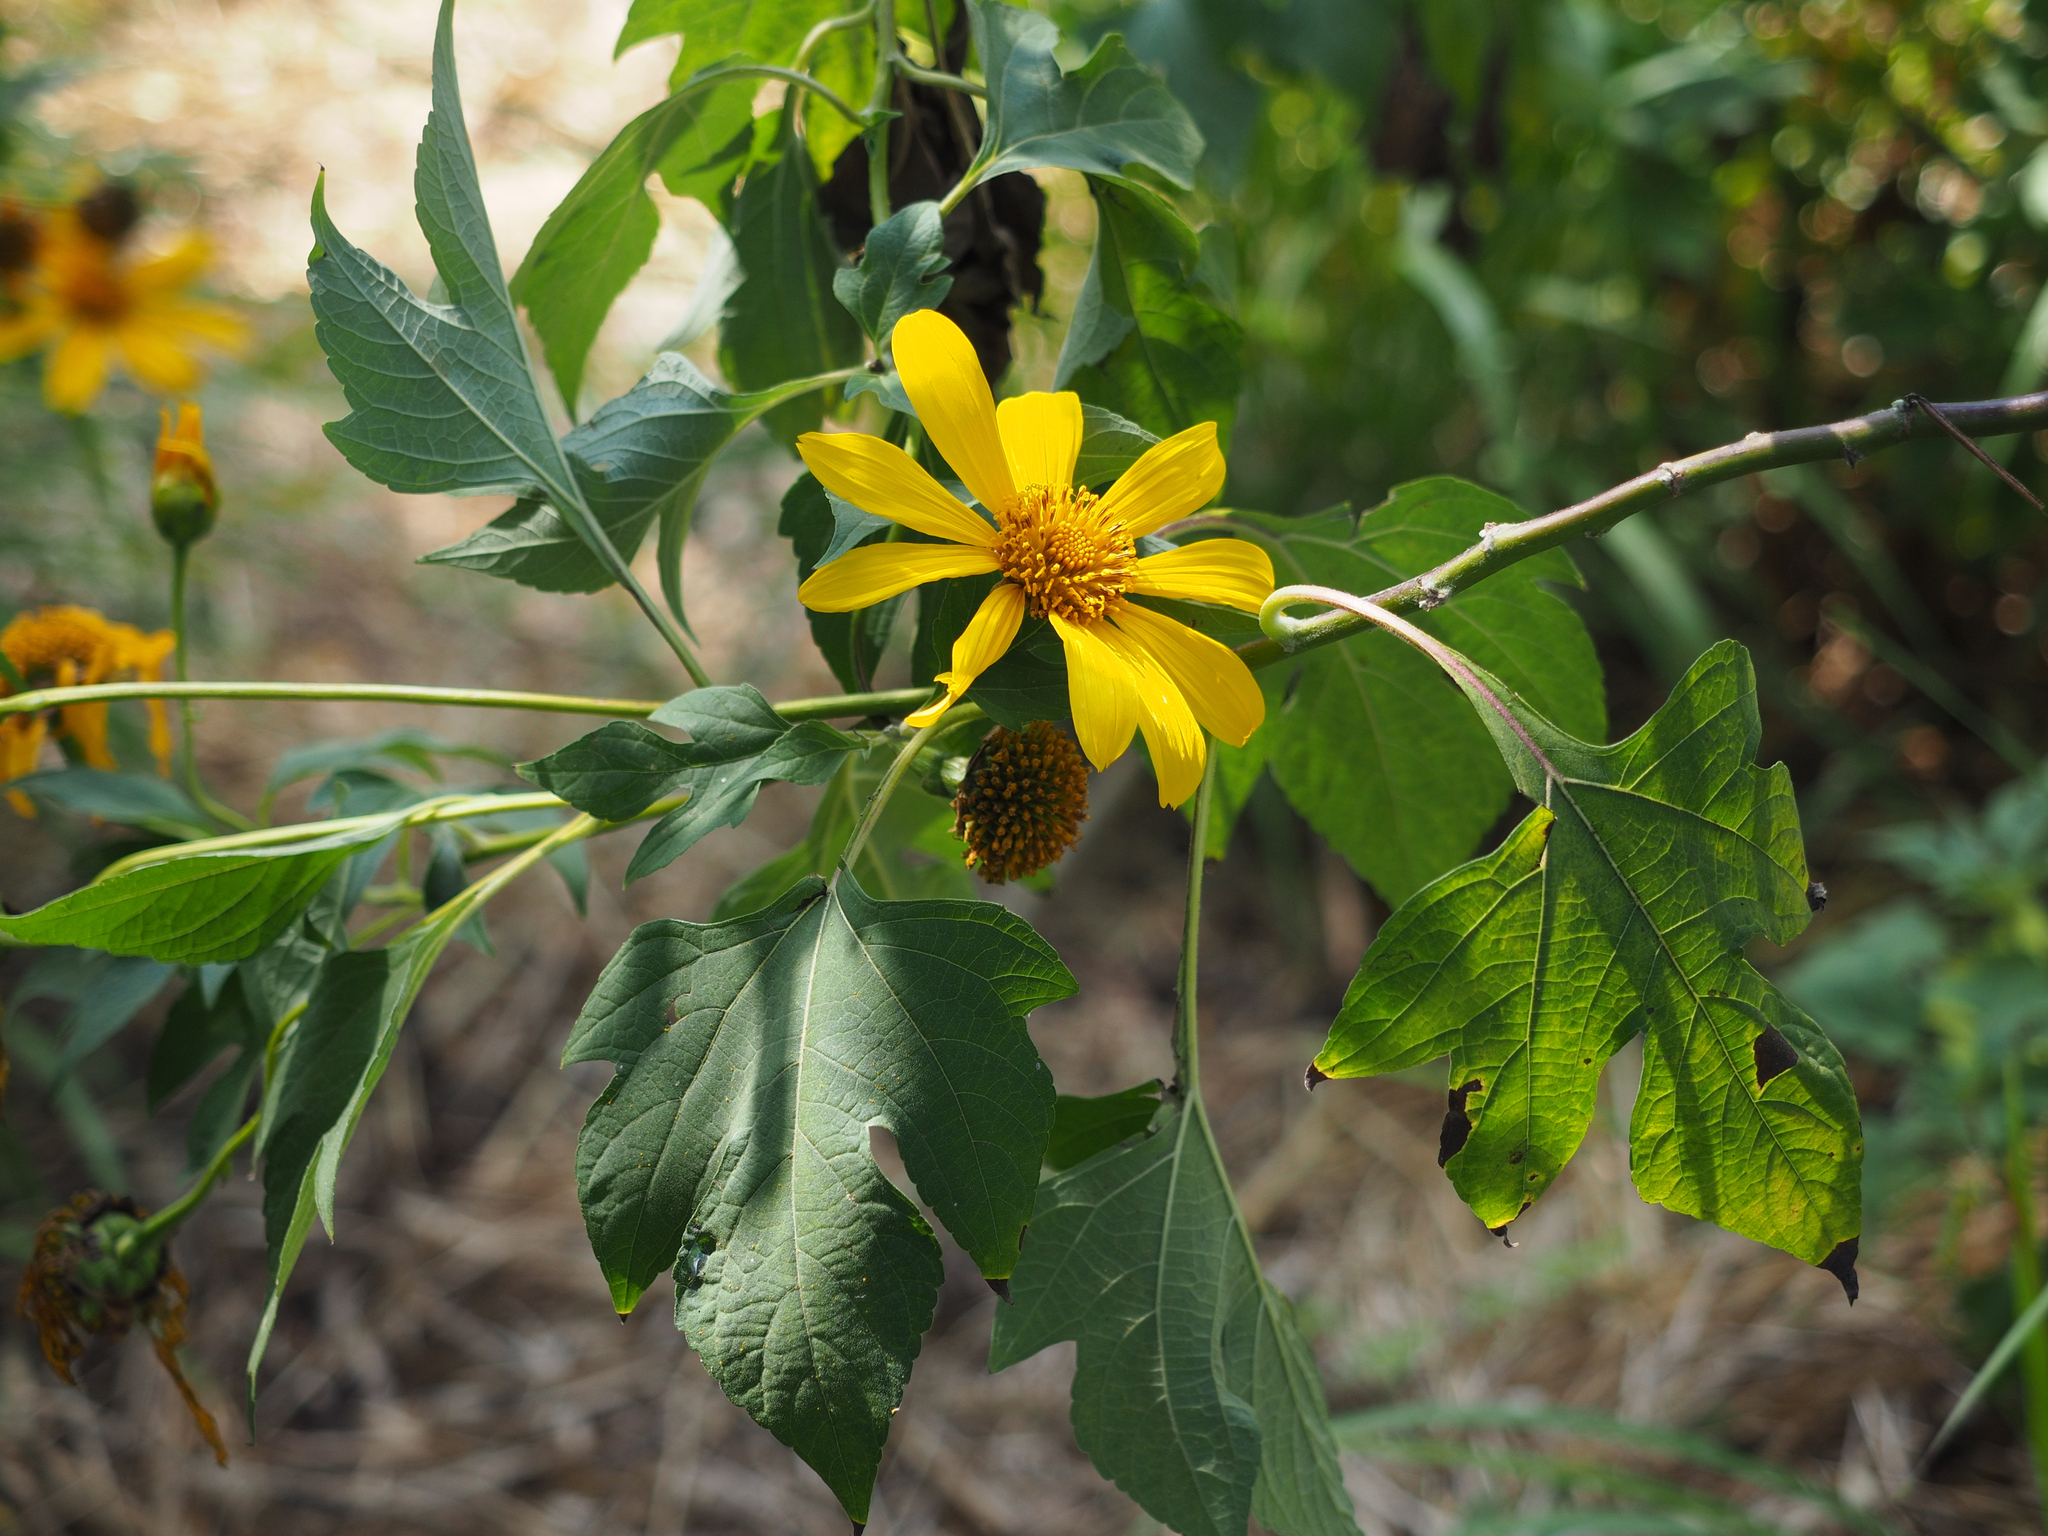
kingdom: Plantae
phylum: Tracheophyta
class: Magnoliopsida
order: Asterales
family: Asteraceae
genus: Tithonia
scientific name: Tithonia diversifolia
